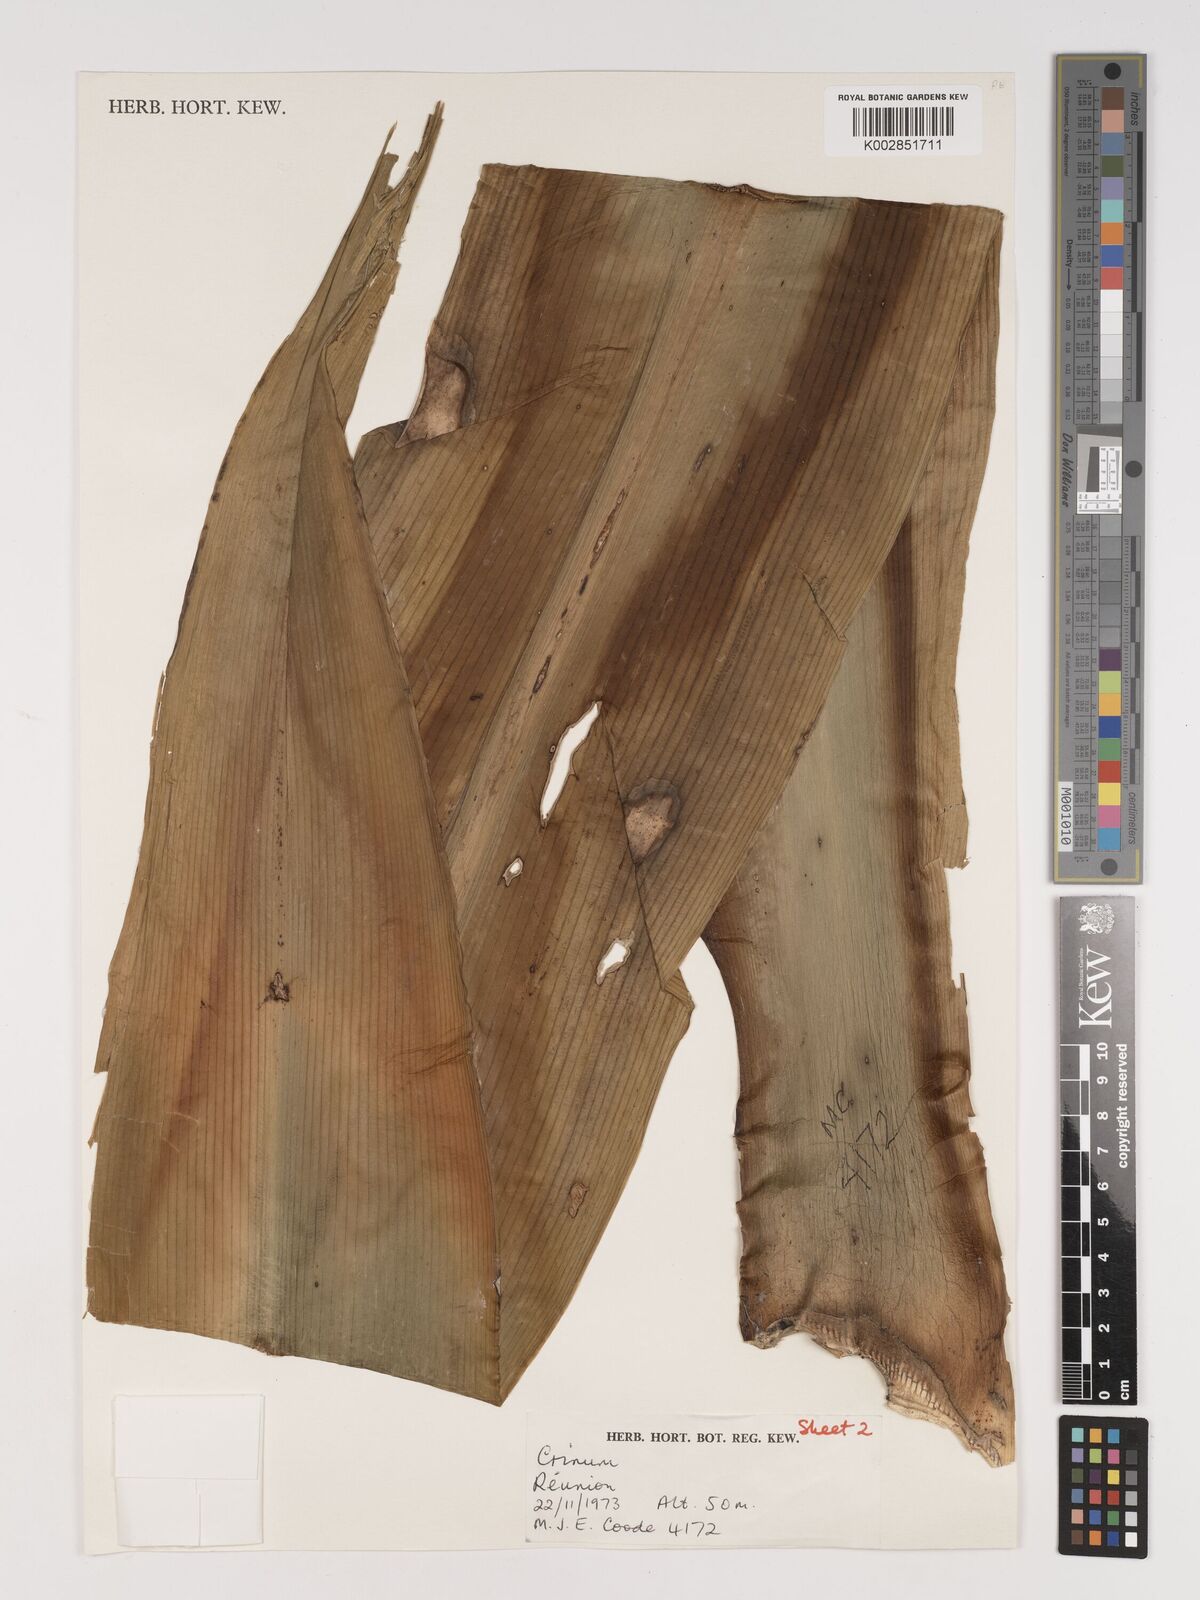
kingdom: Plantae
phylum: Tracheophyta
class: Liliopsida
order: Asparagales
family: Amaryllidaceae
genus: Crinum
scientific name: Crinum
